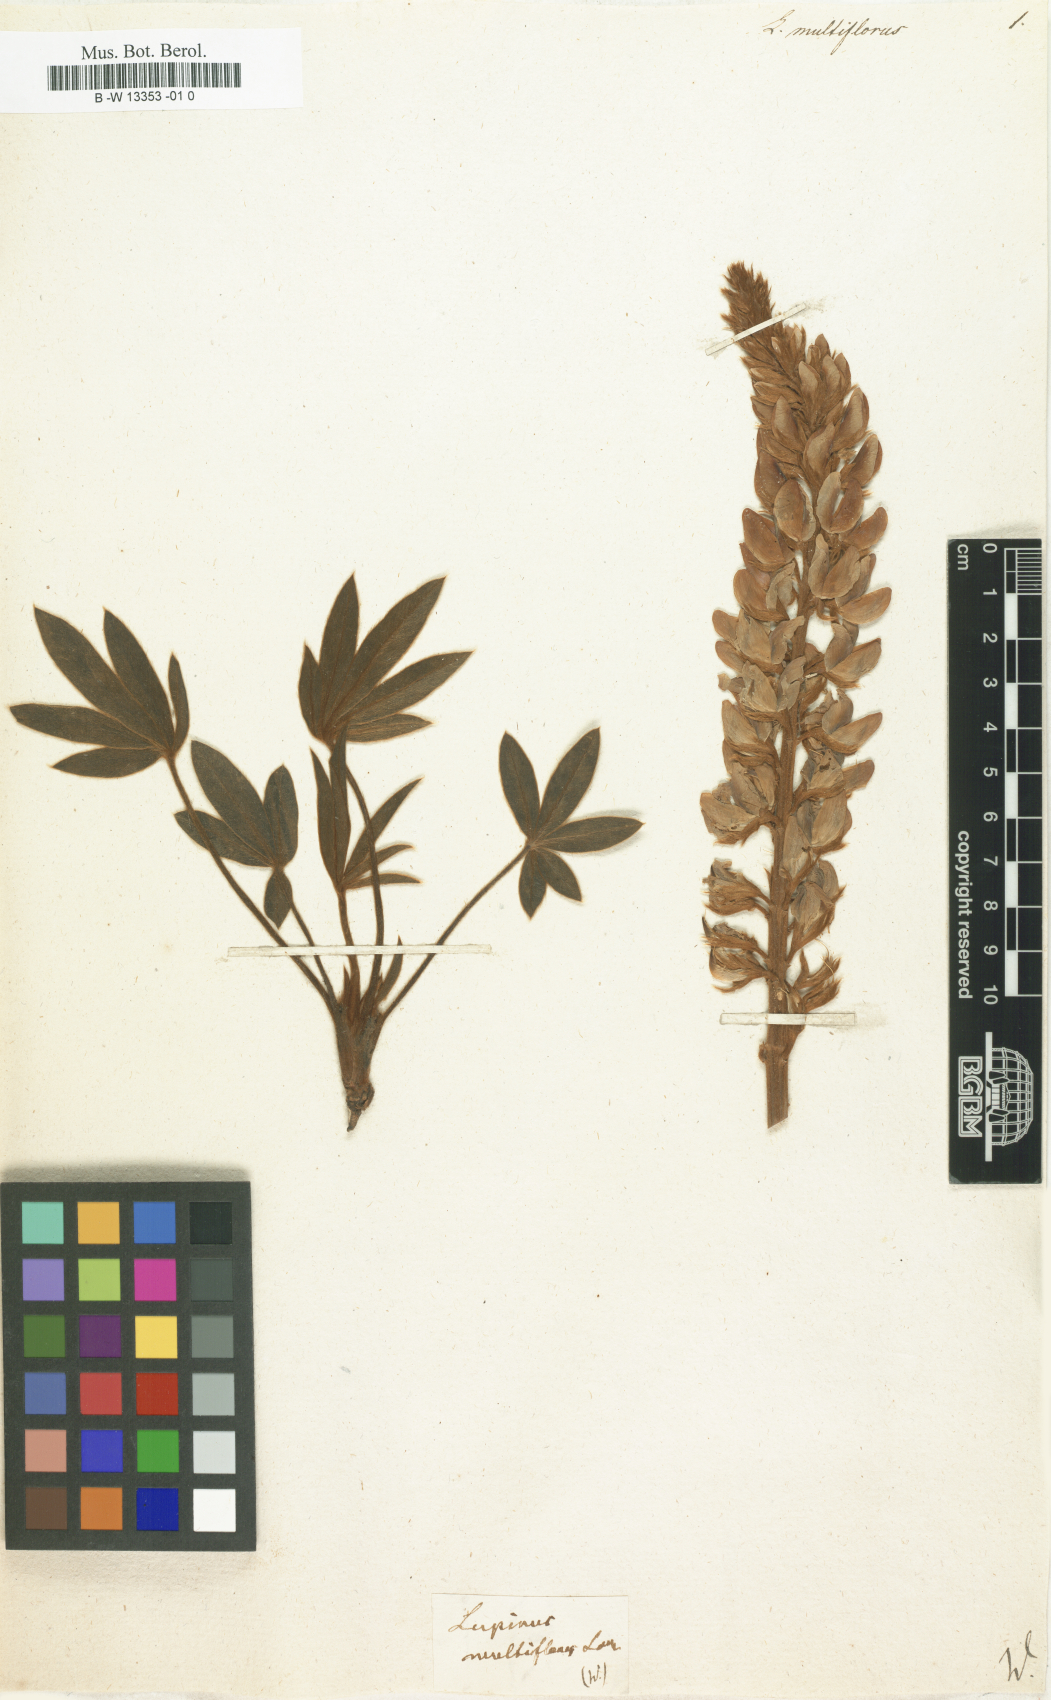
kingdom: Plantae
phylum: Tracheophyta
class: Magnoliopsida
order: Fabales
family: Fabaceae
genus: Lupinus
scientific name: Lupinus multiflorus
